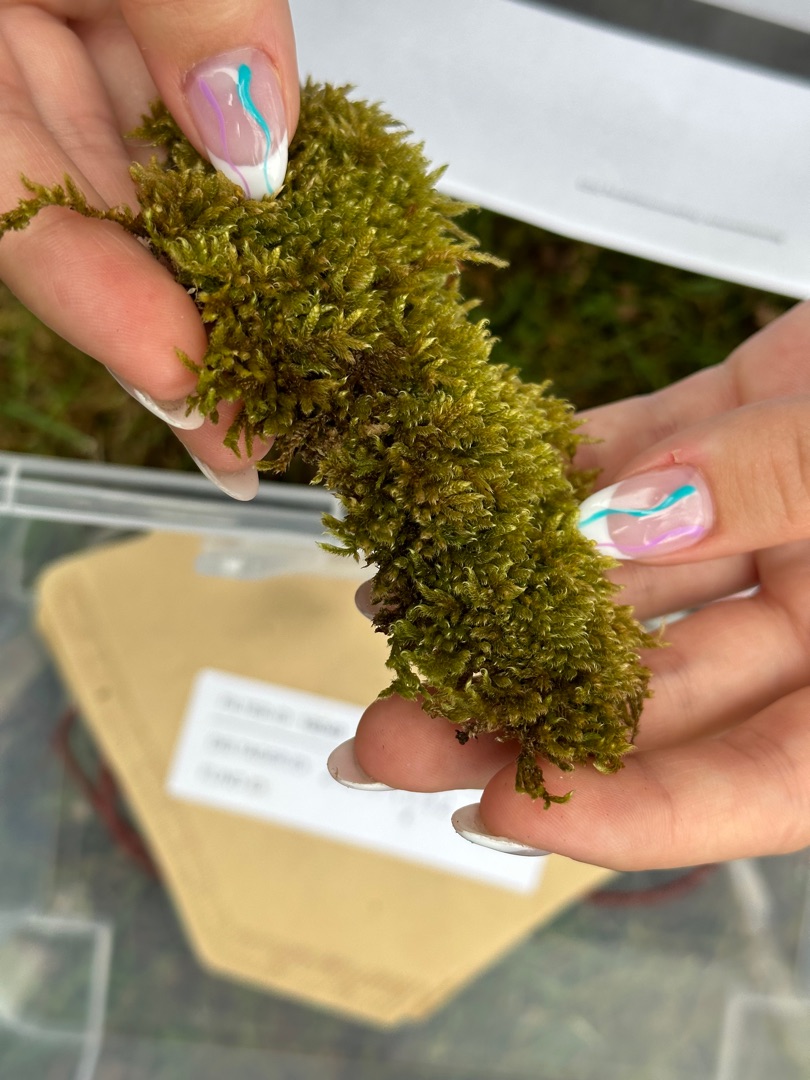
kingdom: Plantae
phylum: Bryophyta
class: Bryopsida
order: Hypnales
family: Hypnaceae
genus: Hypnum
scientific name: Hypnum cupressiforme
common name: Almindelig cypresmos
